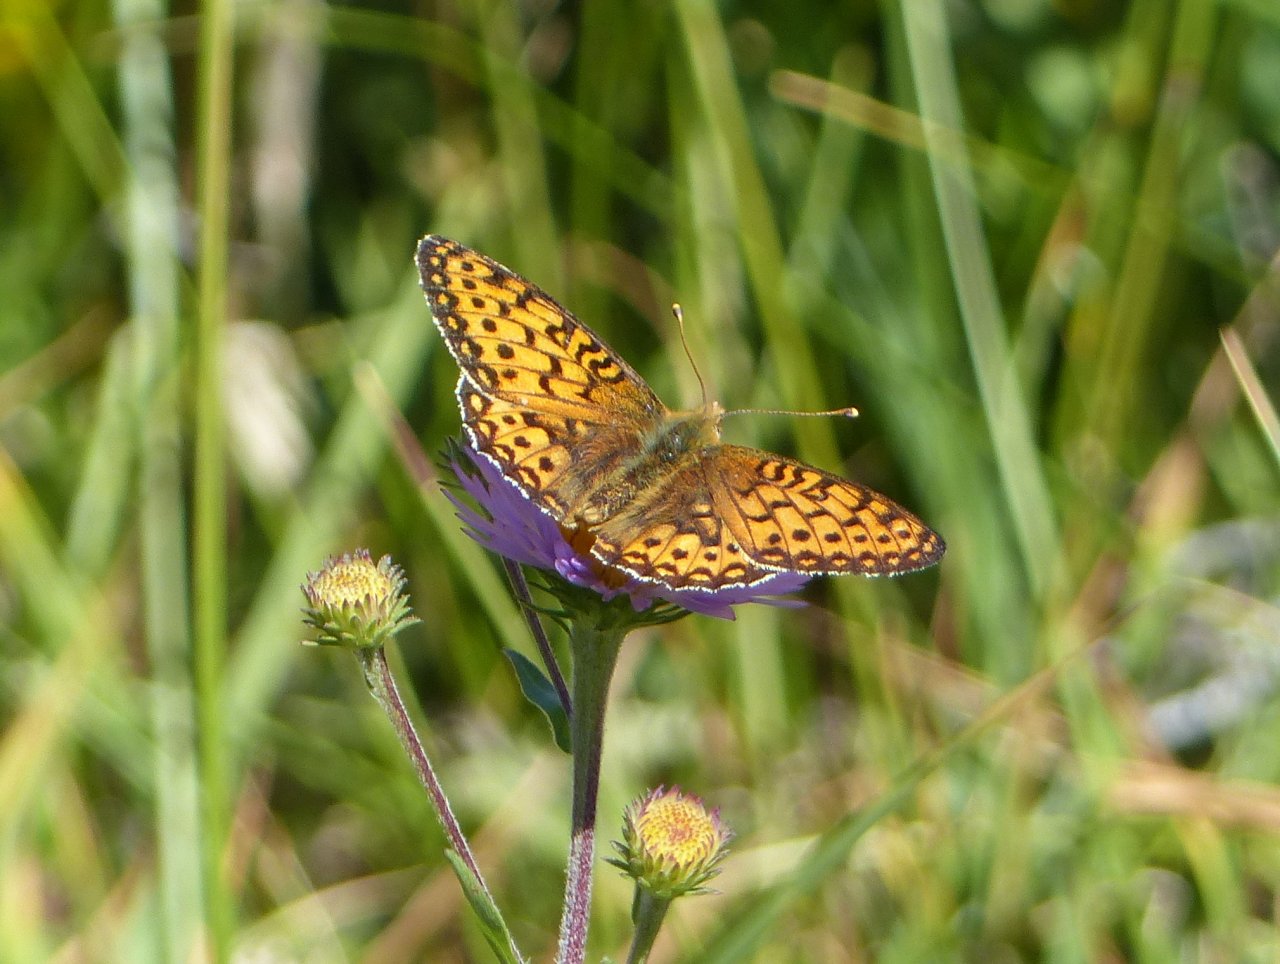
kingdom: Animalia
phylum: Arthropoda
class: Insecta
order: Lepidoptera
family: Nymphalidae
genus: Speyeria
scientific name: Speyeria mormonia
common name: Mormon Fritillary
